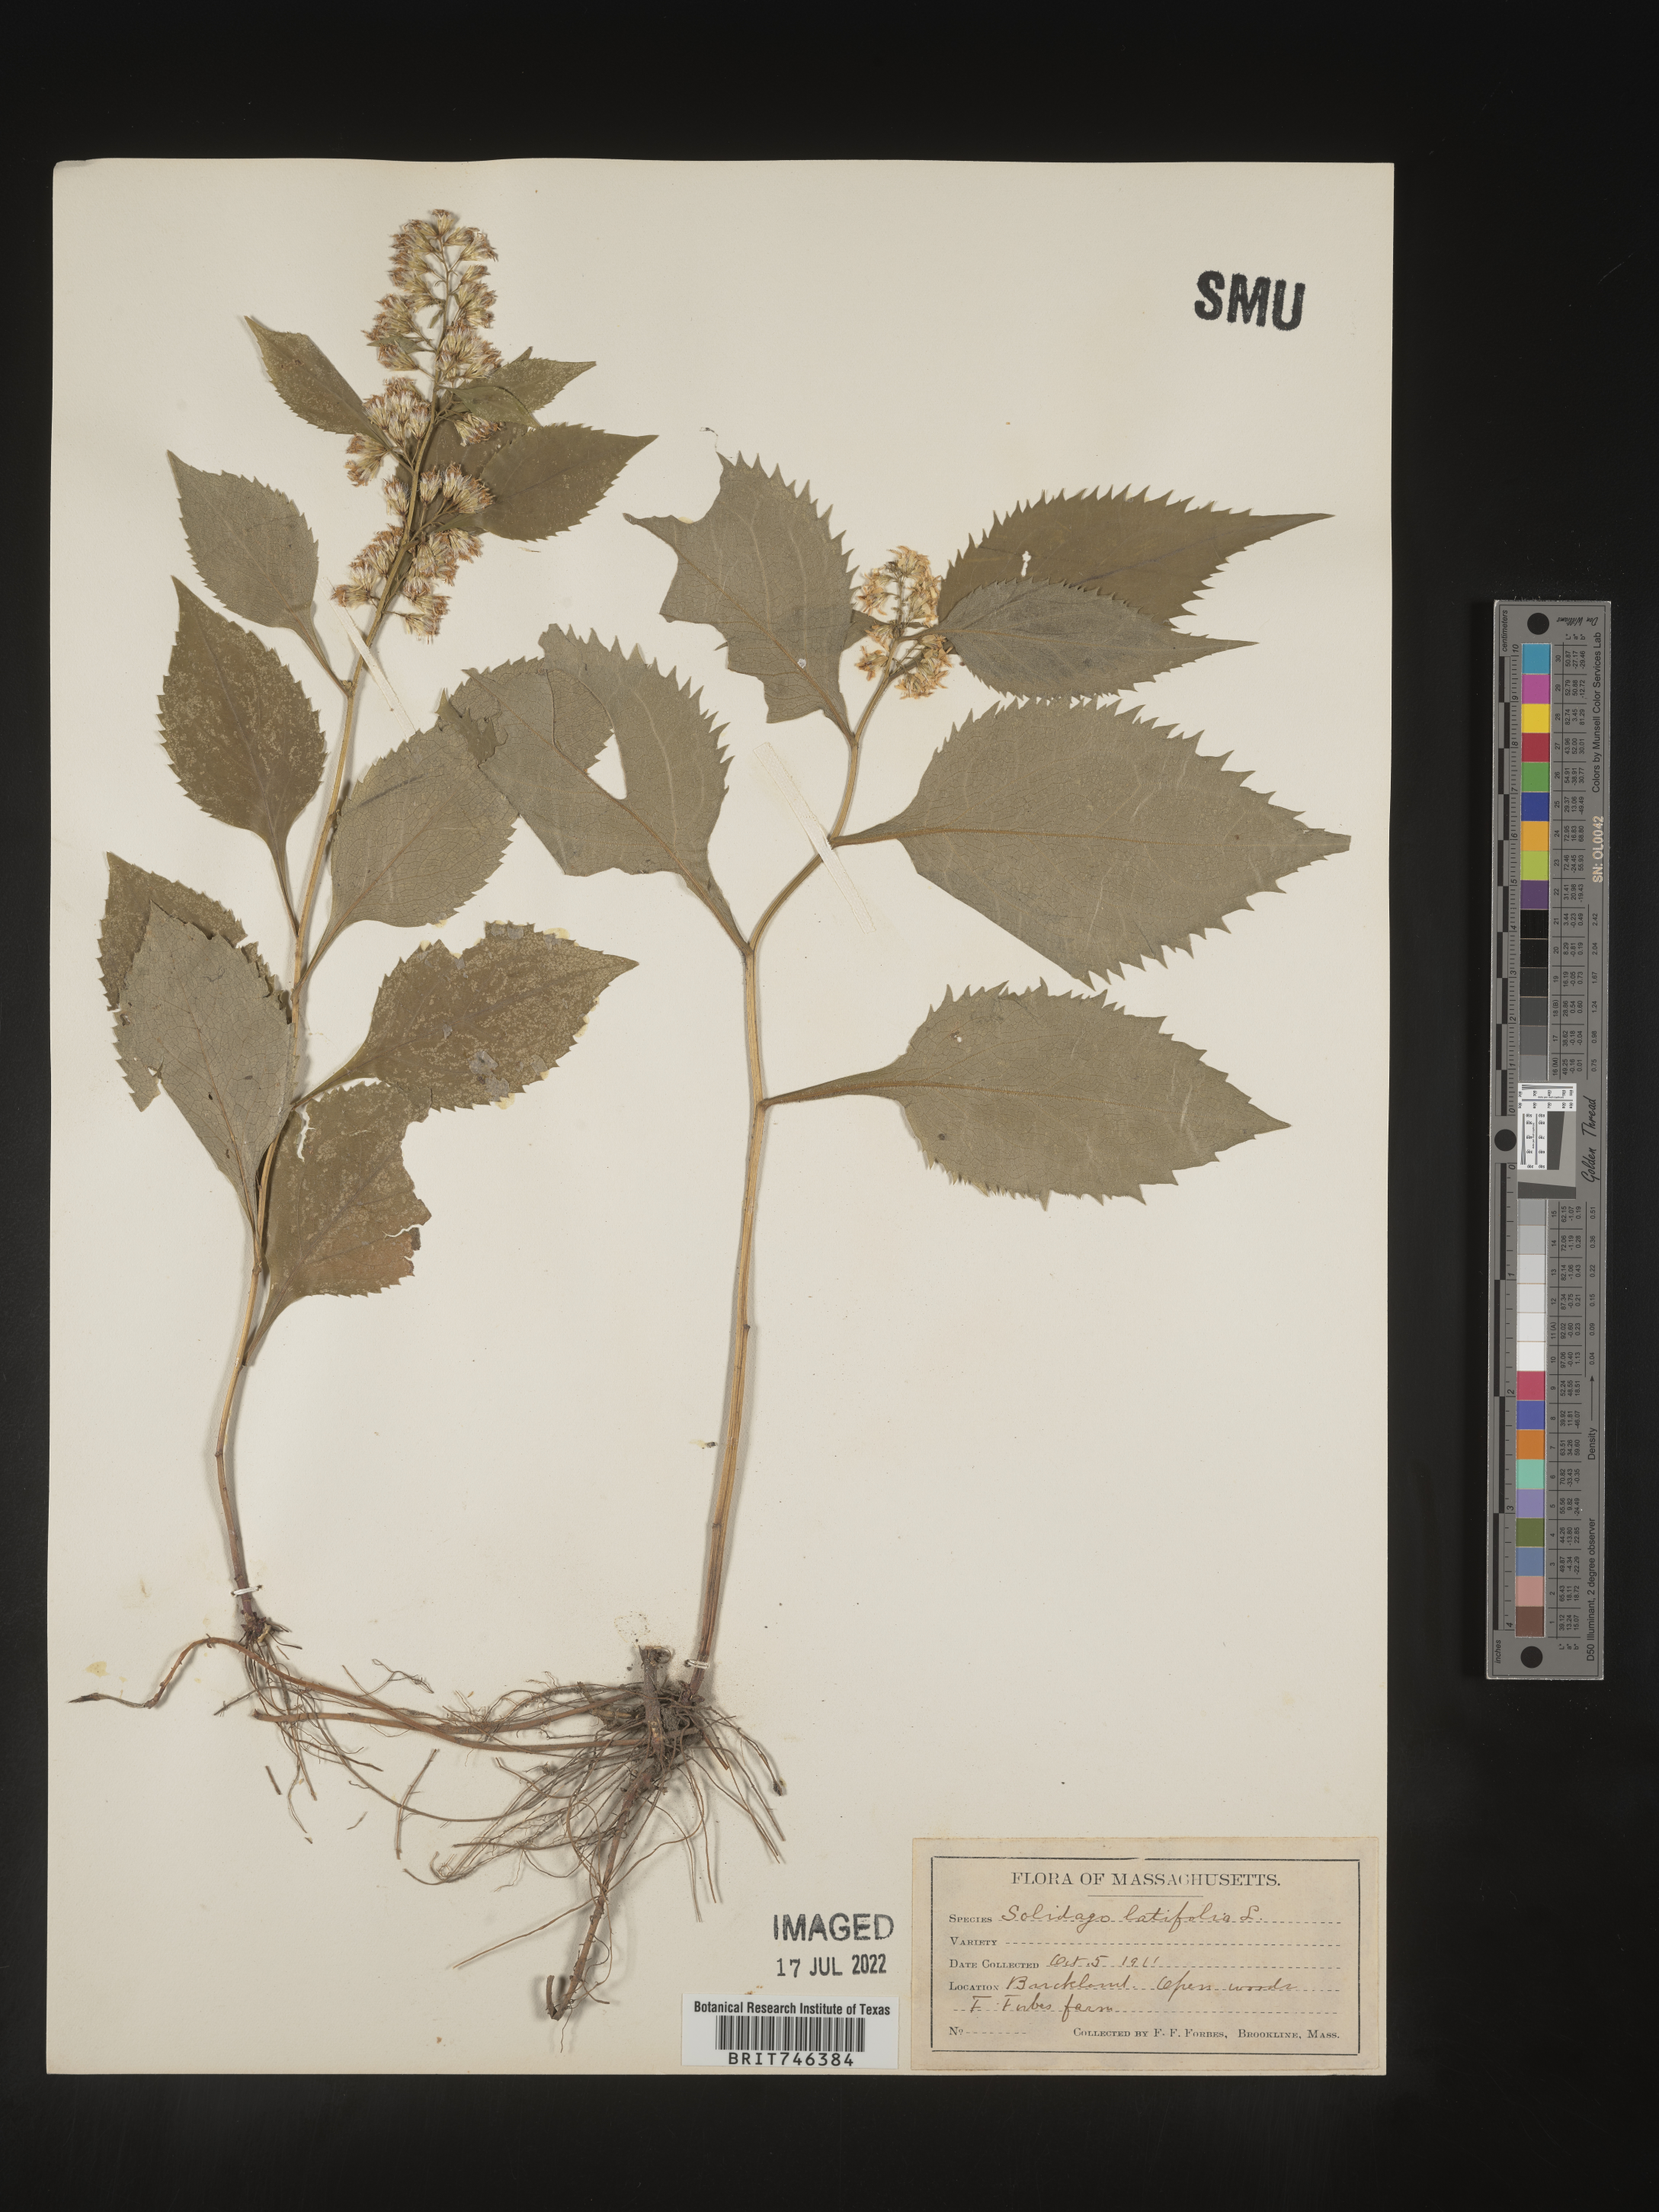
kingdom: Plantae
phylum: Tracheophyta
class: Magnoliopsida
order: Asterales
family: Asteraceae
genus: Solidago
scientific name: Solidago flexicaulis
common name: Zig-zag goldenrod
